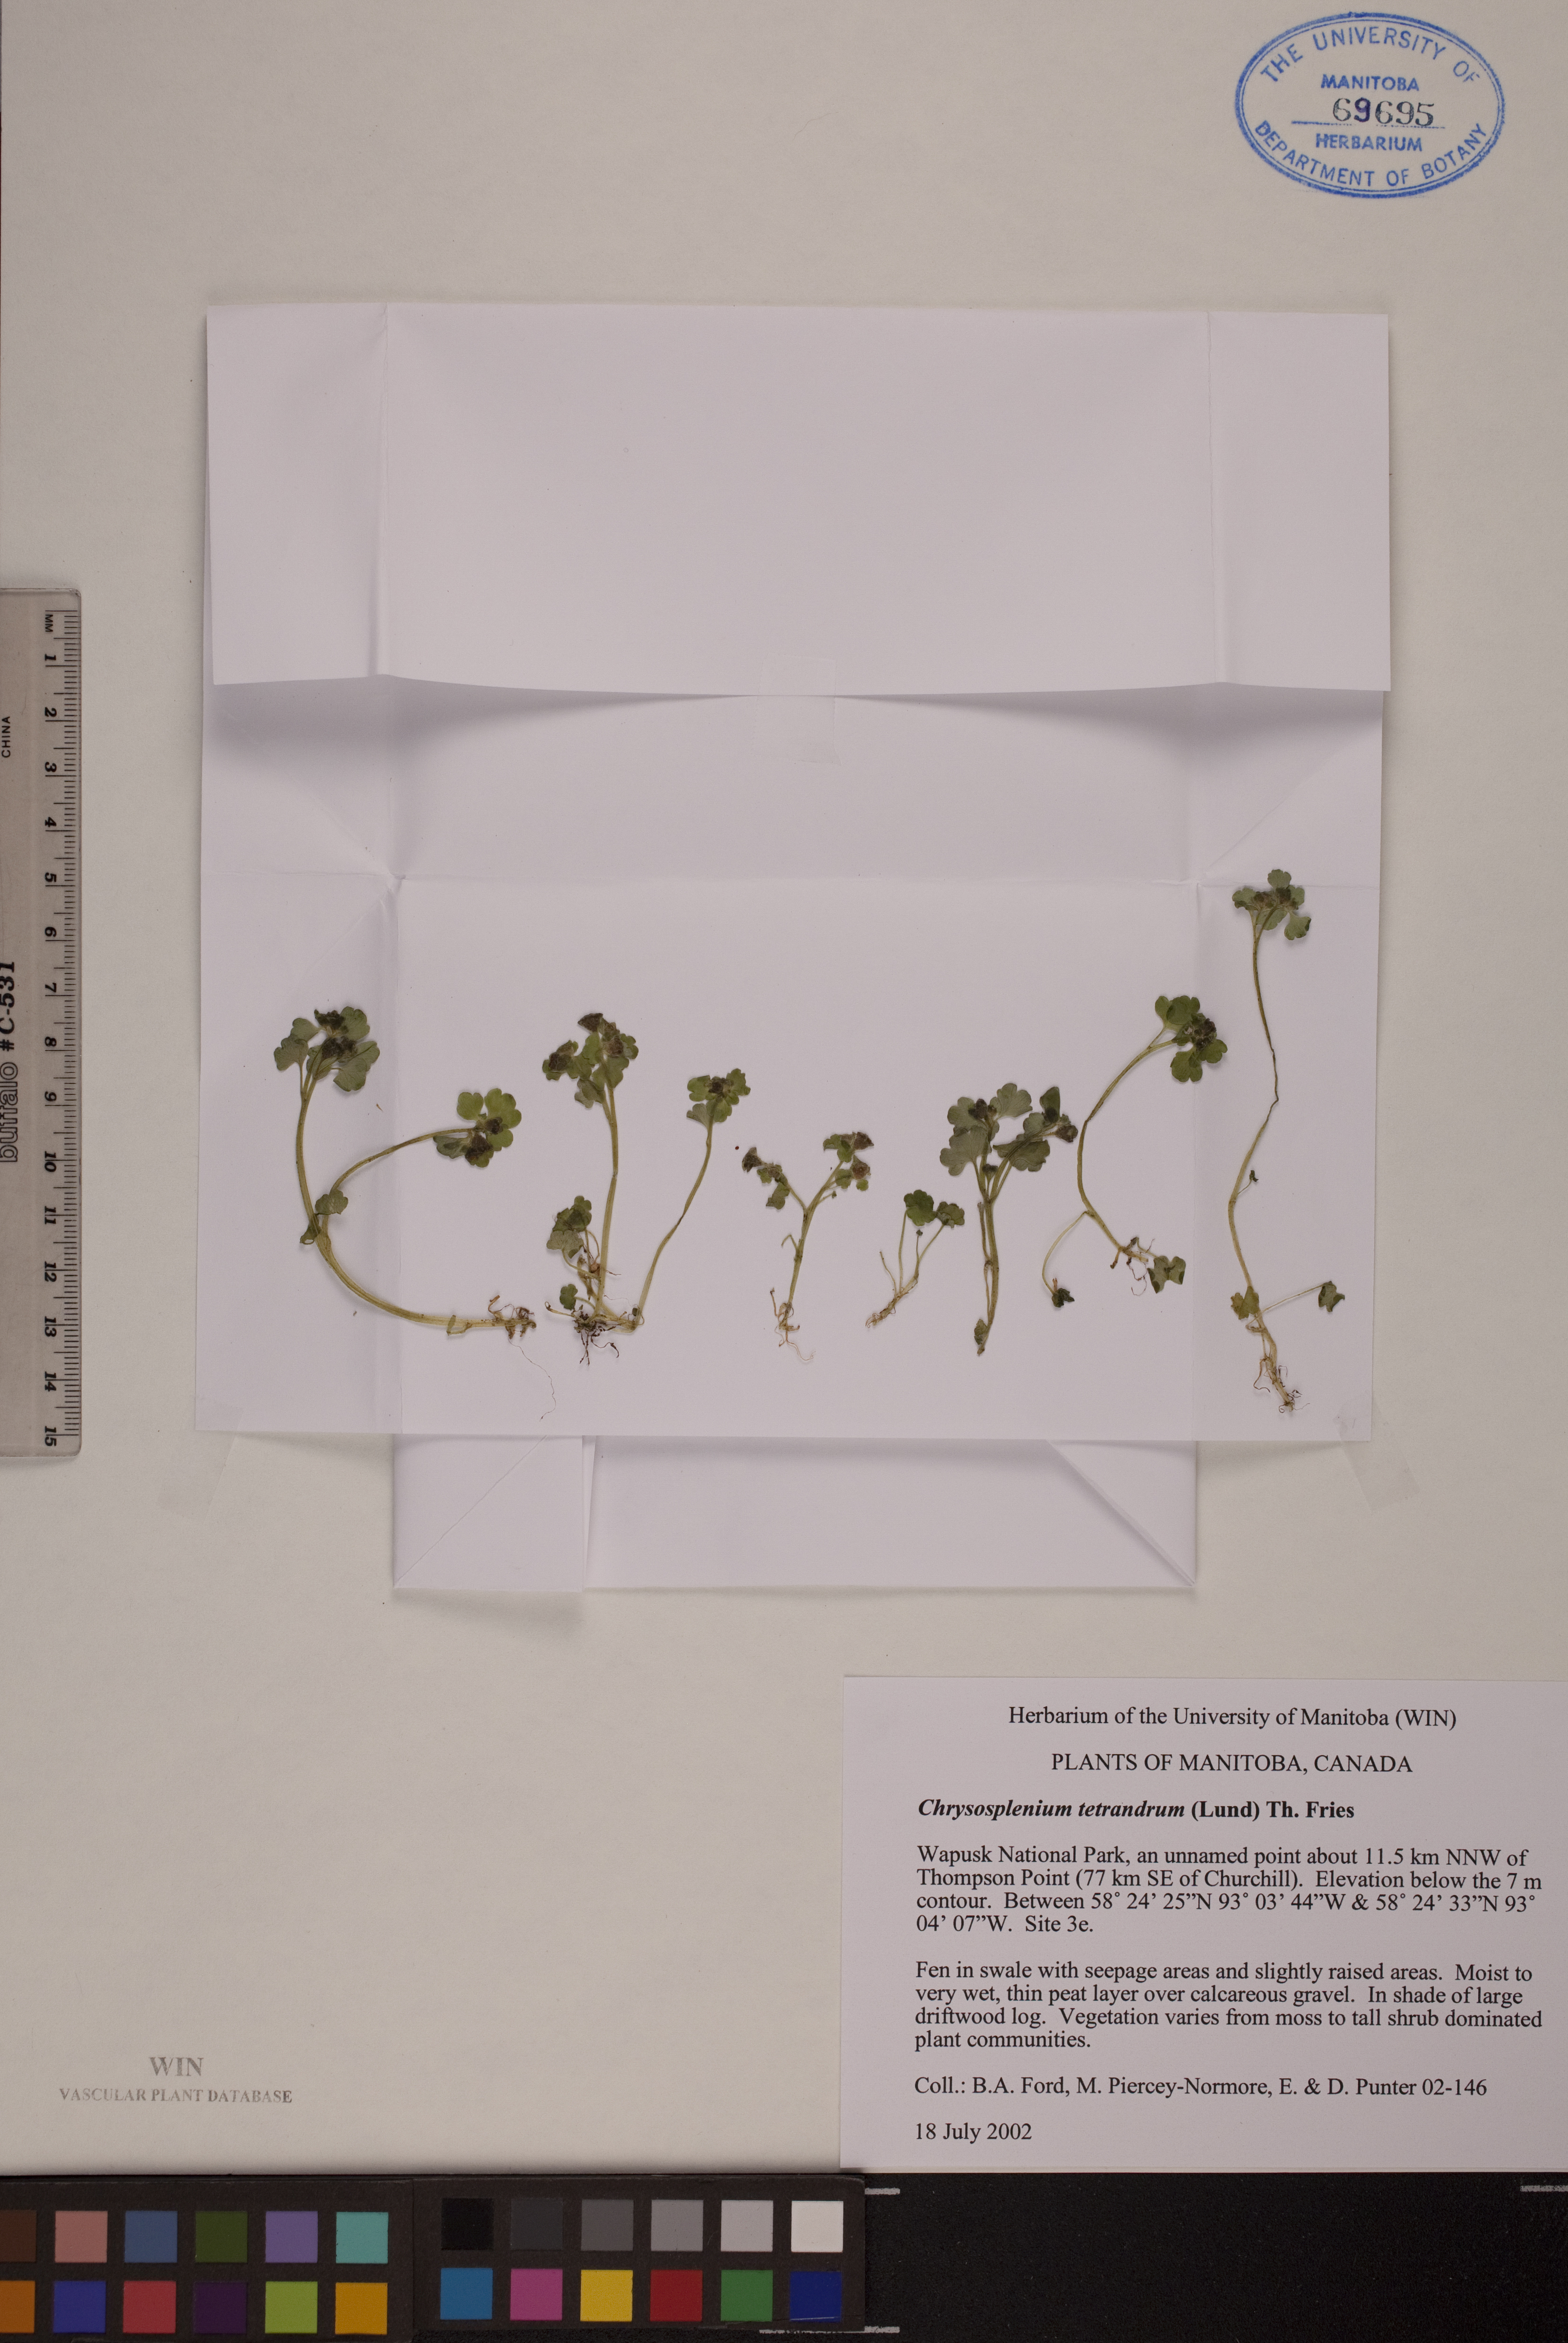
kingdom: Plantae
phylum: Tracheophyta
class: Magnoliopsida
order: Saxifragales
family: Saxifragaceae
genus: Chrysosplenium
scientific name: Chrysosplenium tetrandrum
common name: Green saxifrage
